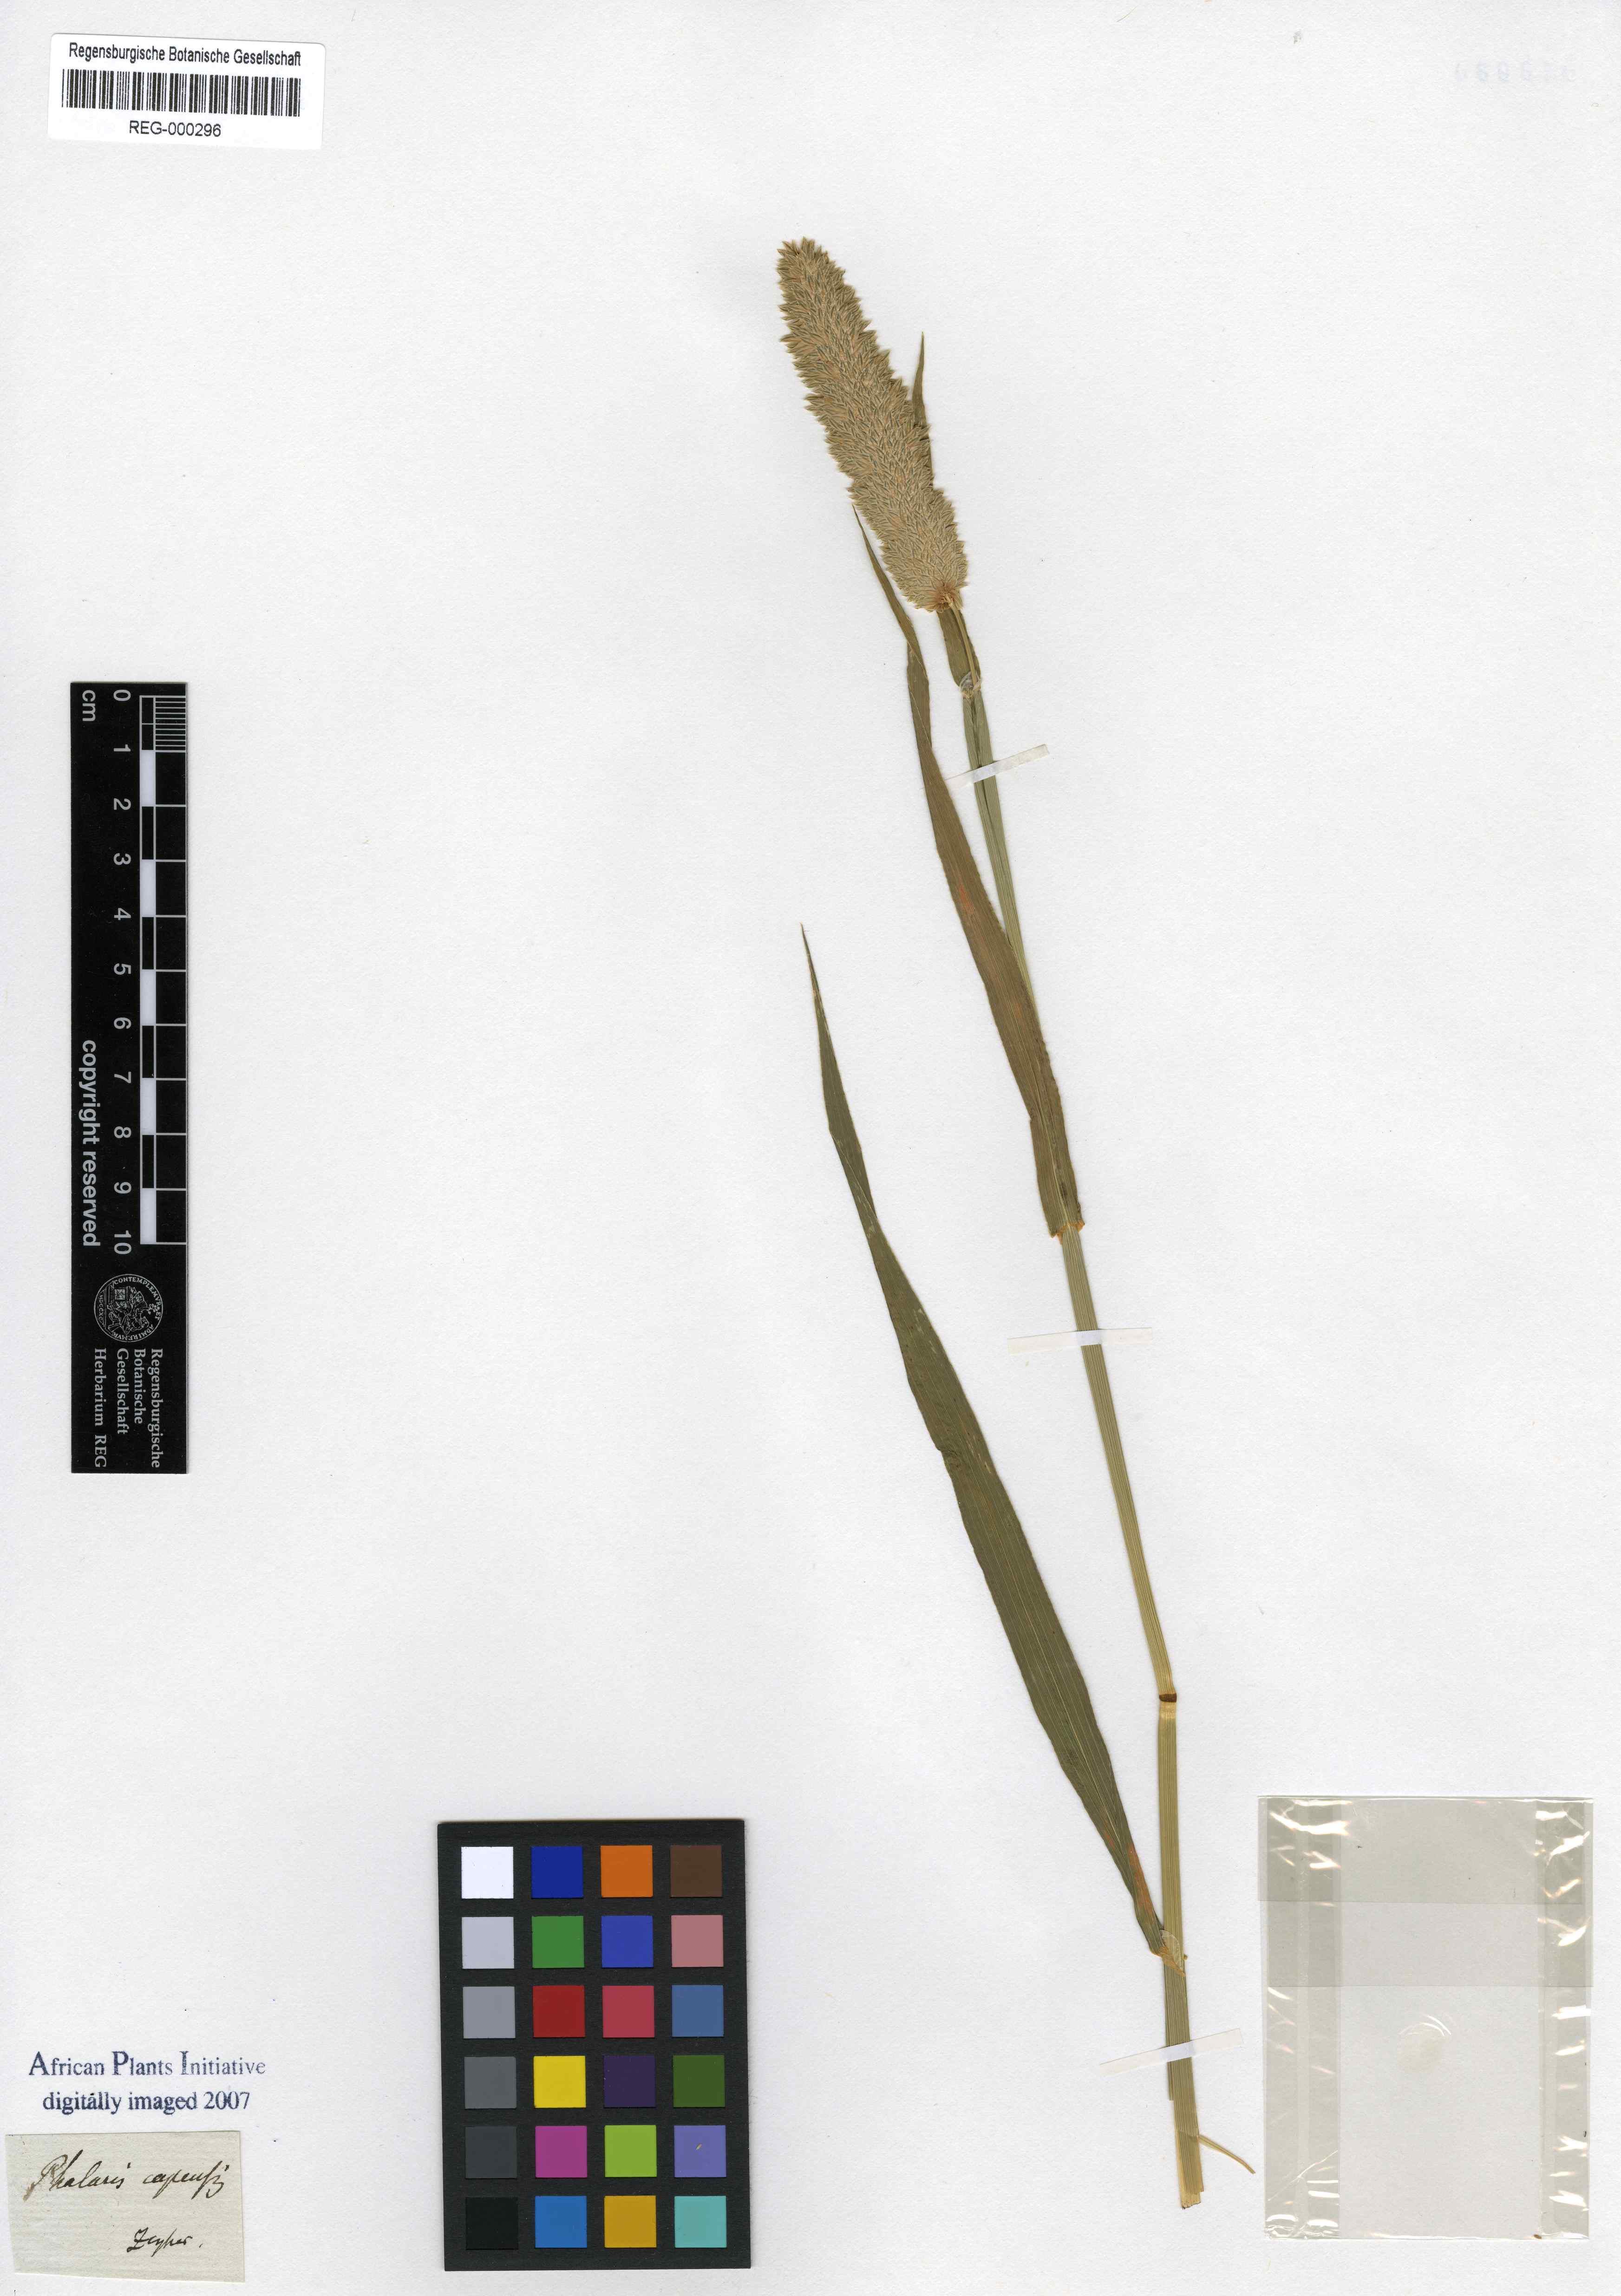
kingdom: Plantae
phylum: Tracheophyta
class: Liliopsida
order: Poales
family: Poaceae
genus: Phalaris
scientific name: Phalaris minor
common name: Littleseed canarygrass
